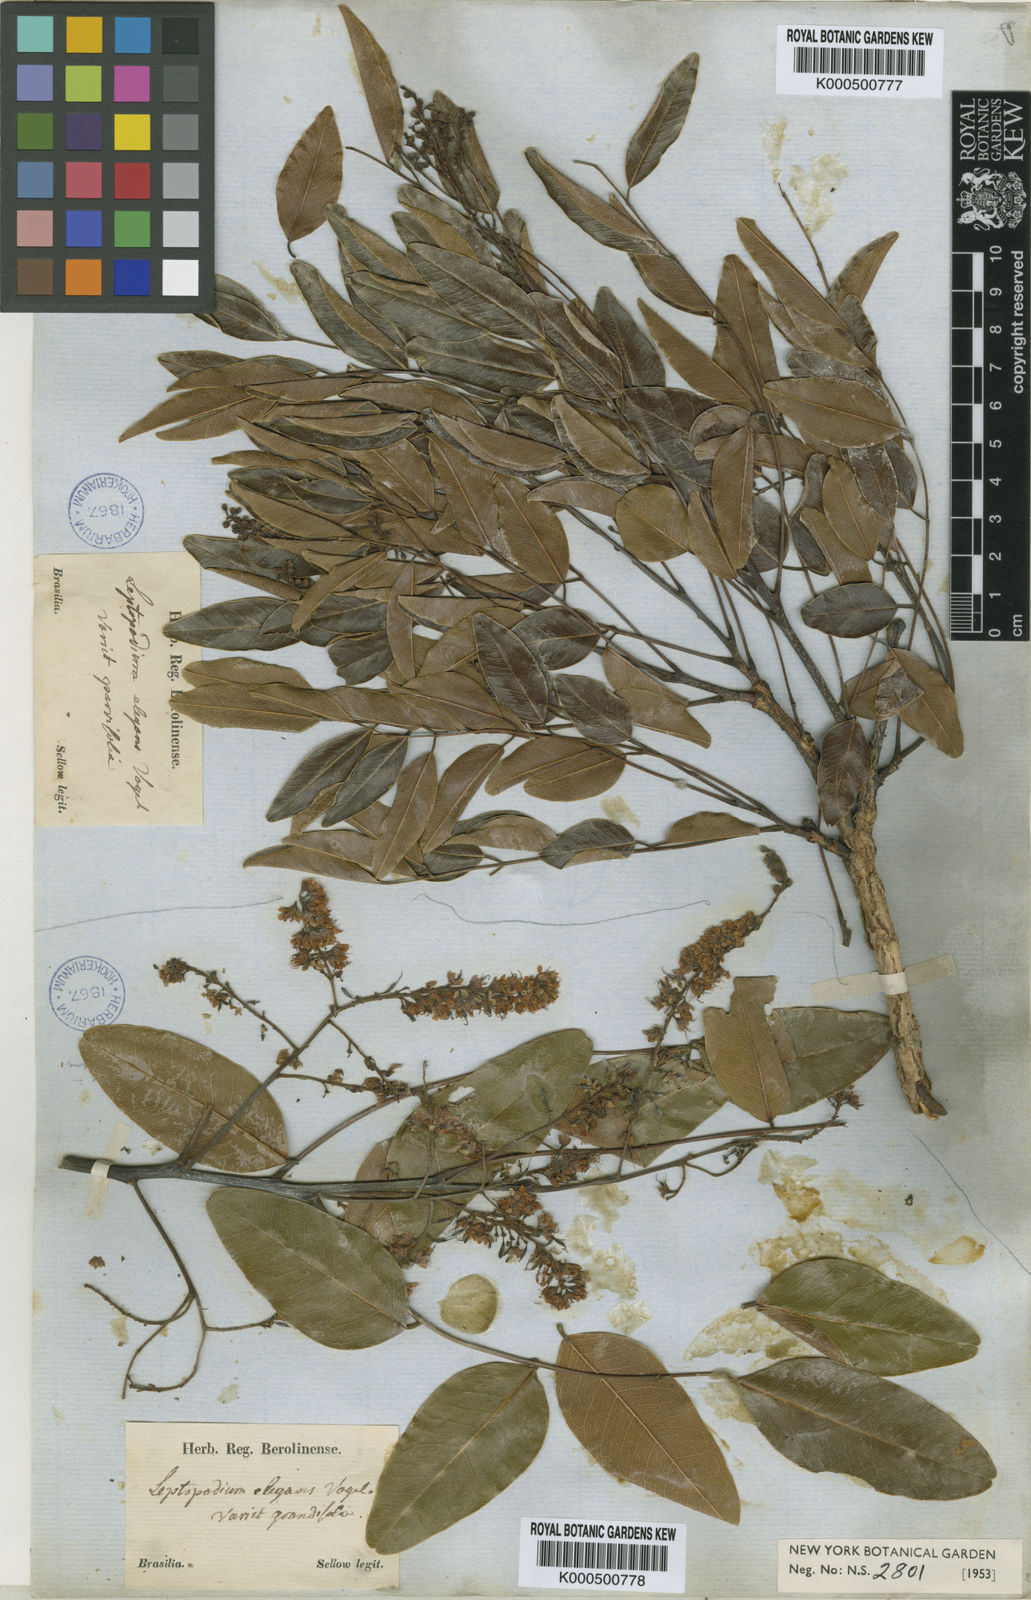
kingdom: Plantae
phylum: Tracheophyta
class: Magnoliopsida
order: Fabales
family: Fabaceae
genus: Leptolobium
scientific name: Leptolobium elegans
